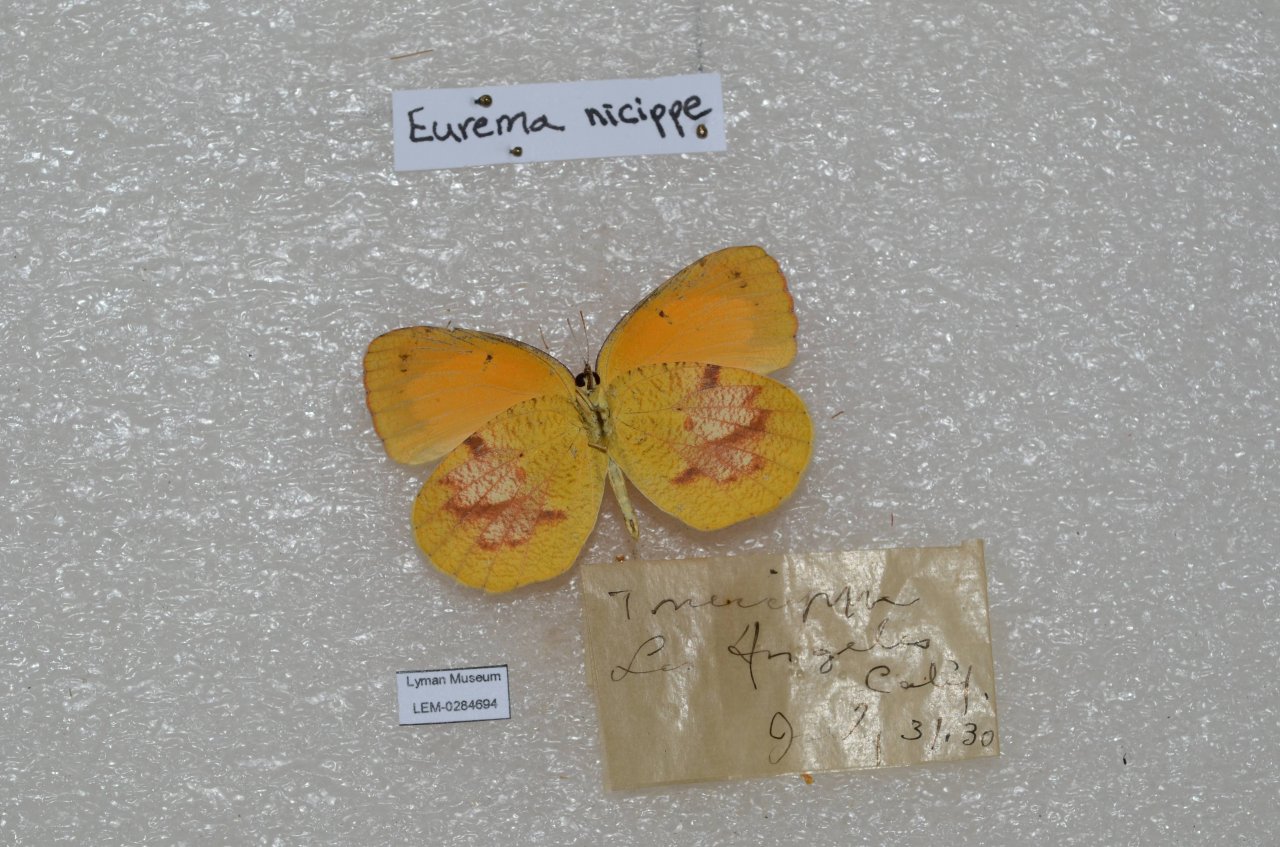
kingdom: Animalia
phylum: Arthropoda
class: Insecta
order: Lepidoptera
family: Pieridae
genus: Abaeis
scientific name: Abaeis nicippe
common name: Sleepy Orange
